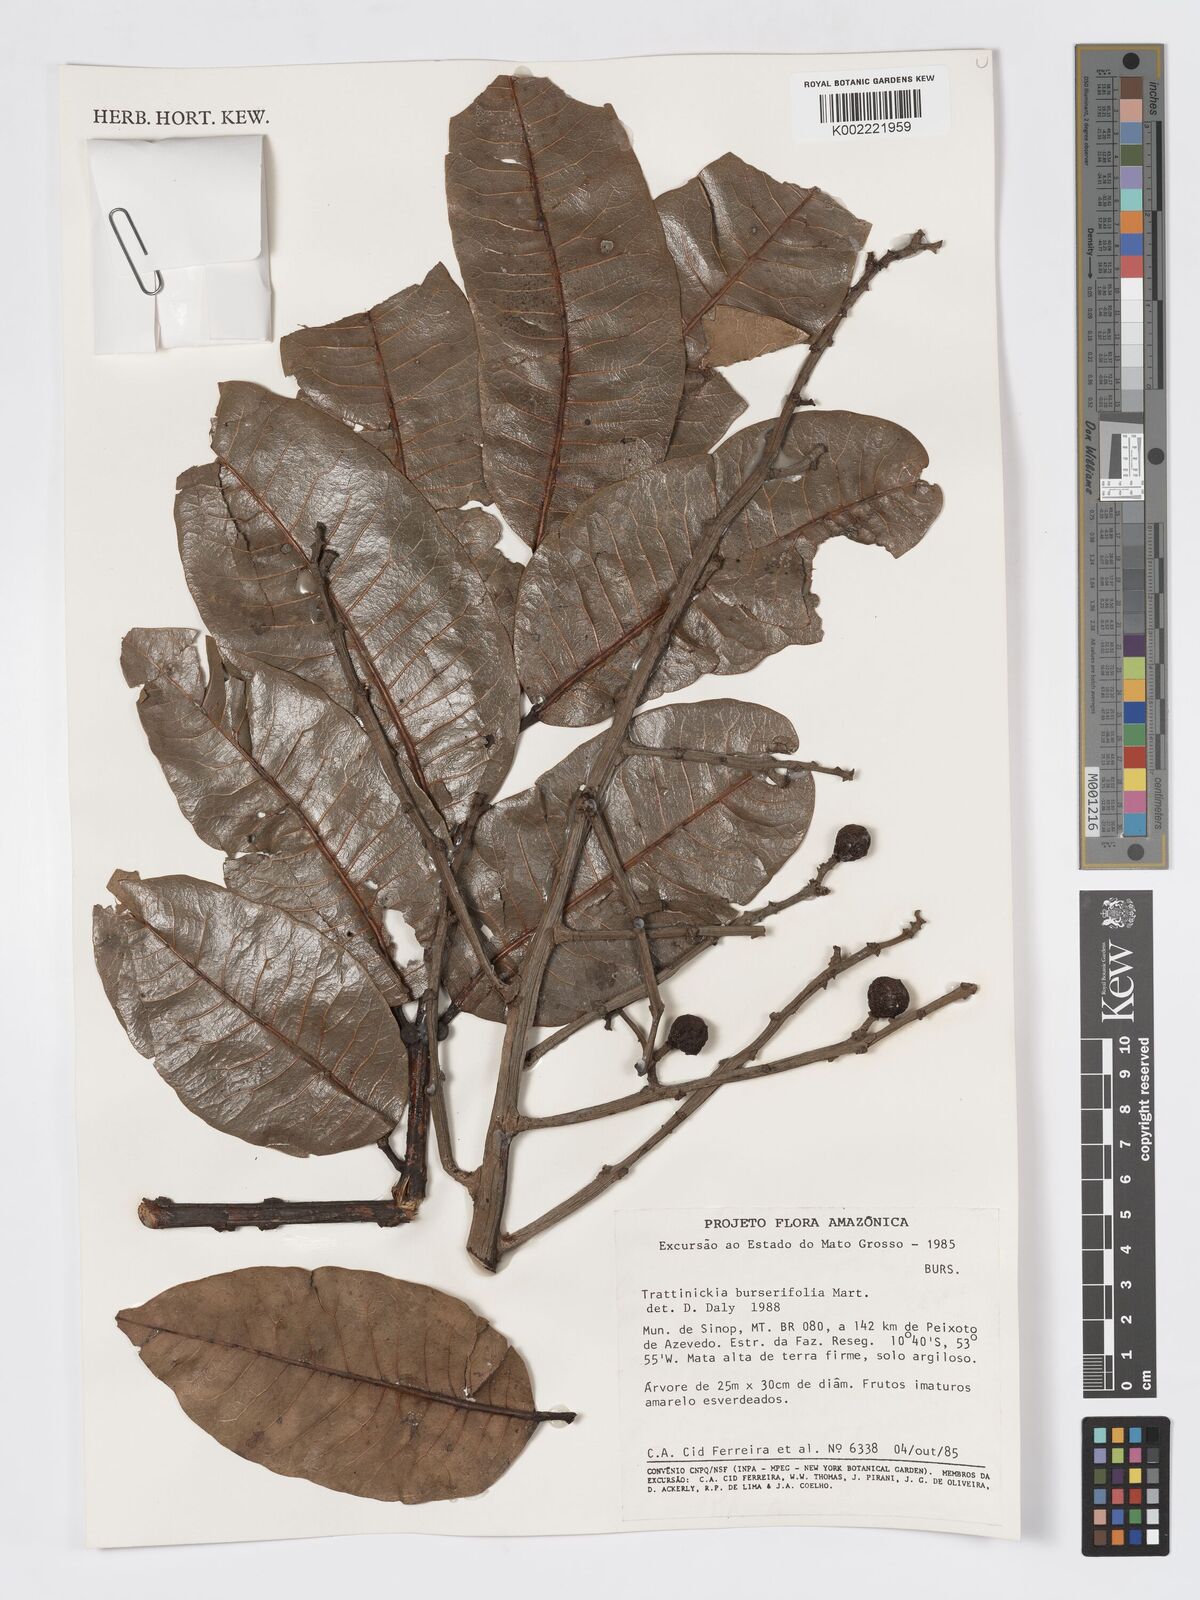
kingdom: Plantae
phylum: Tracheophyta
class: Magnoliopsida
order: Sapindales
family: Burseraceae
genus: Trattinnickia
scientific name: Trattinnickia burserifolia
